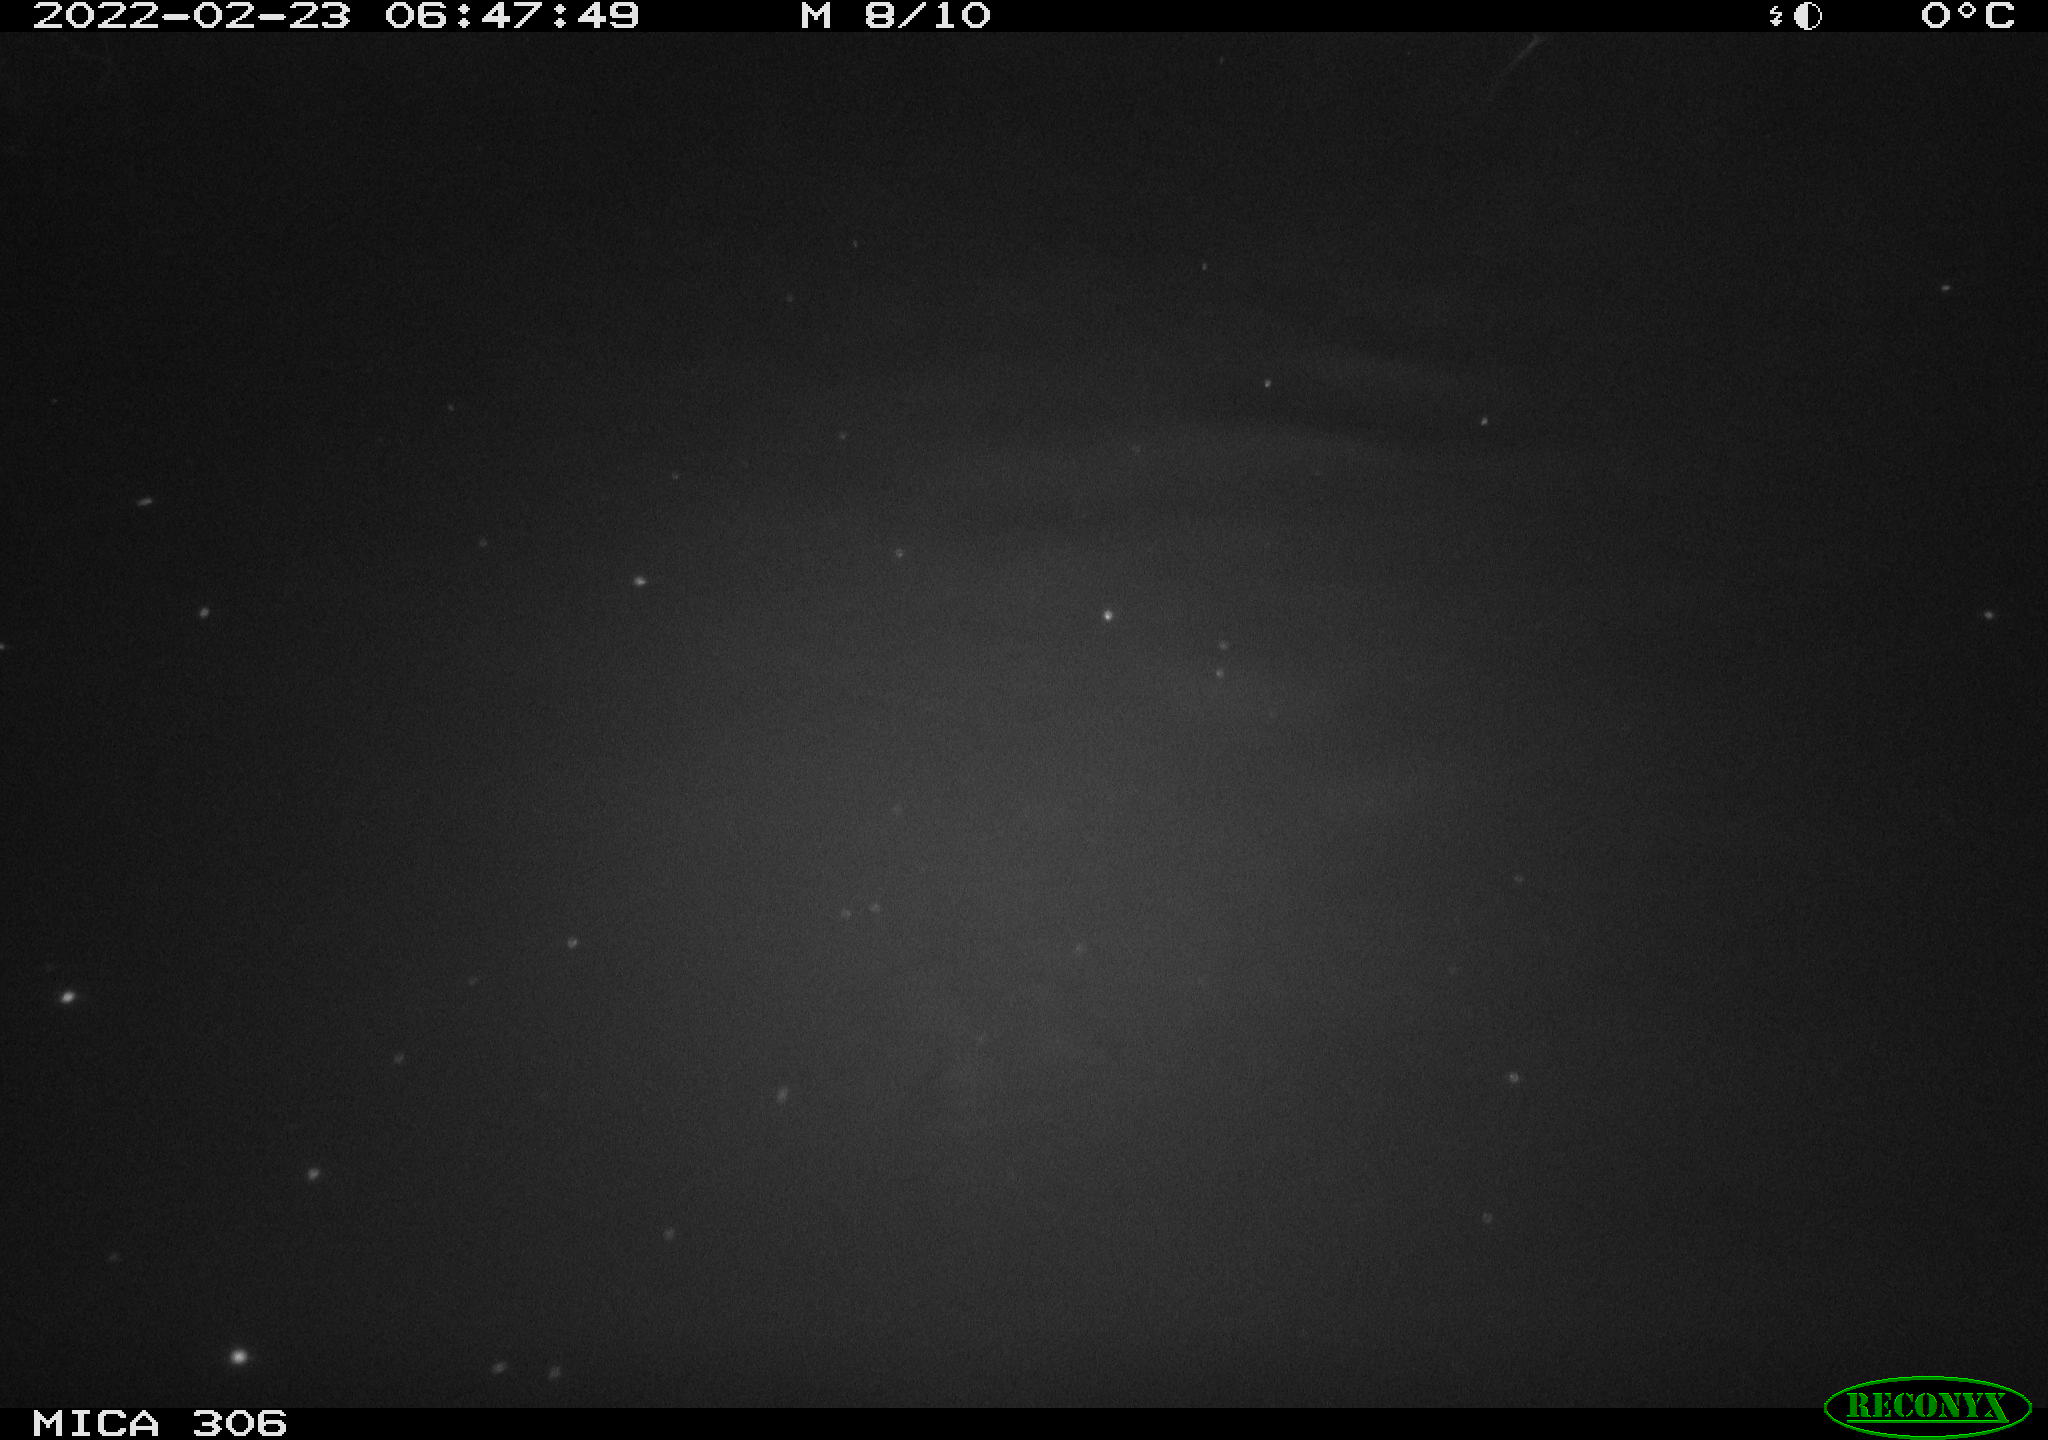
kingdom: Animalia
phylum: Chordata
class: Aves
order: Gruiformes
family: Rallidae
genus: Gallinula
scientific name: Gallinula chloropus
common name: Common moorhen
